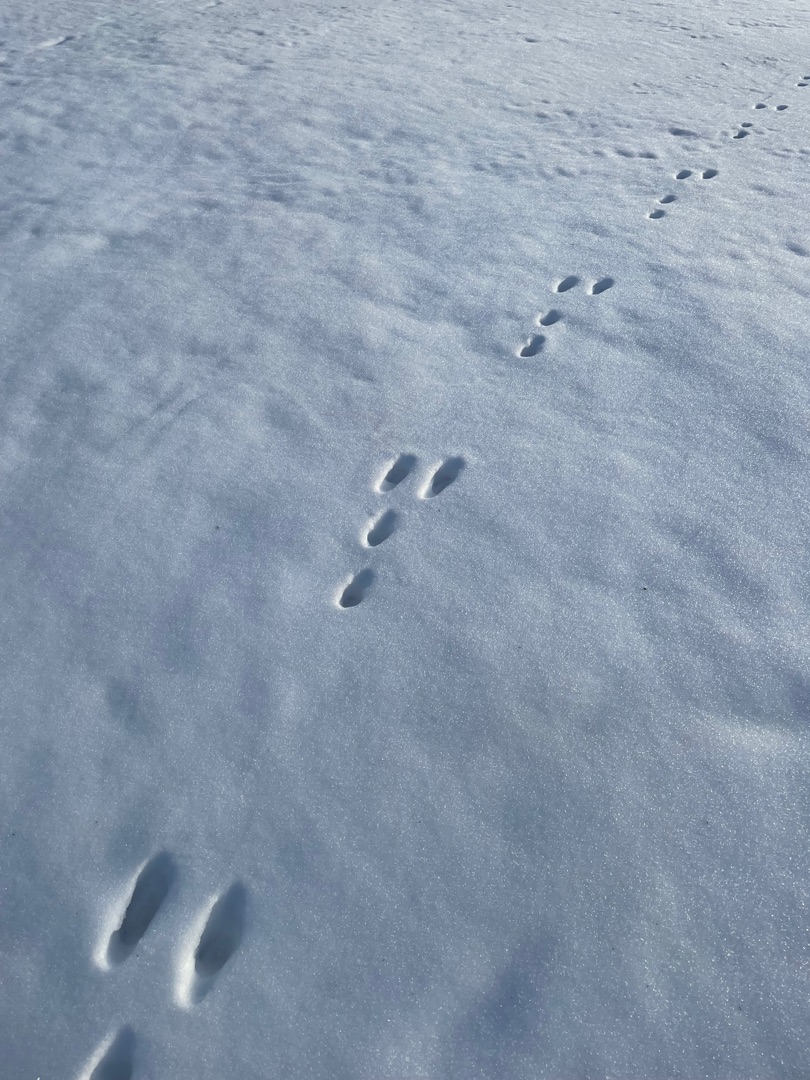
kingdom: Animalia
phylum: Chordata
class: Mammalia
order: Lagomorpha
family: Leporidae
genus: Lepus
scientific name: Lepus europaeus
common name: Hare
